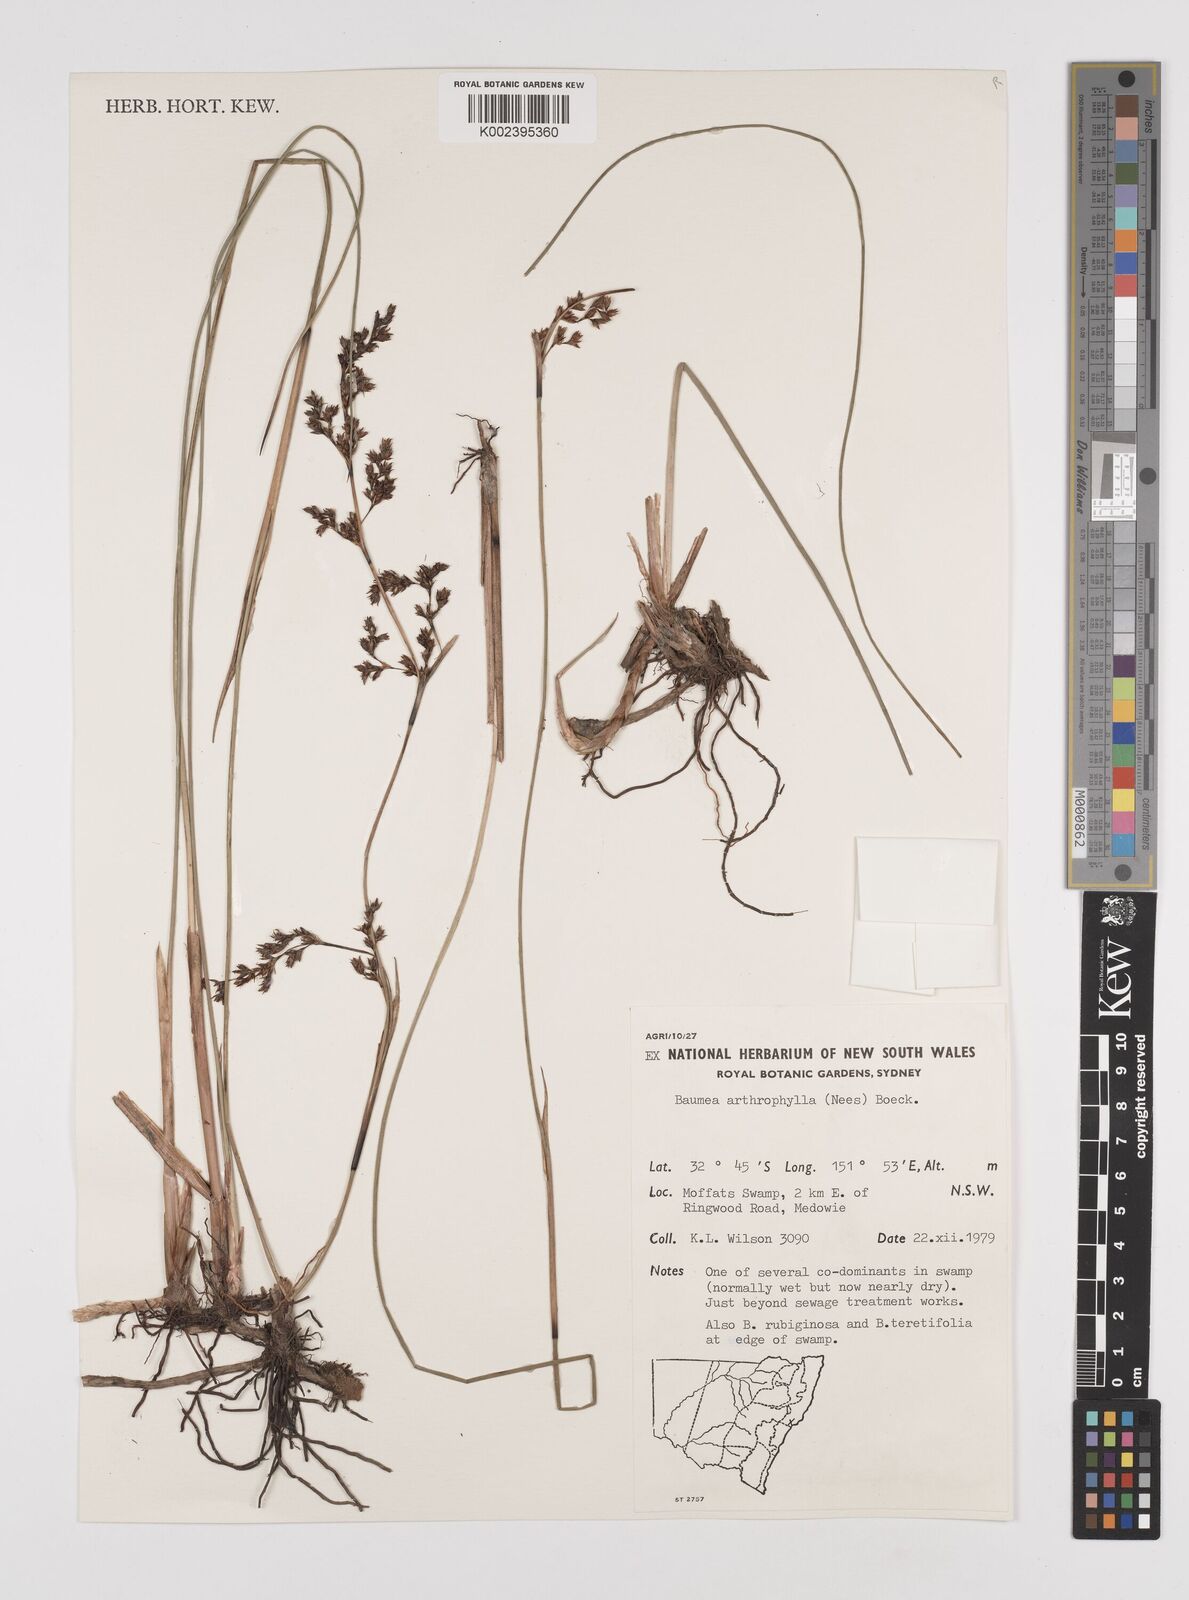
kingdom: Plantae
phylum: Tracheophyta
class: Liliopsida
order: Poales
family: Cyperaceae
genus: Machaerina
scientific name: Machaerina arthrophylla
